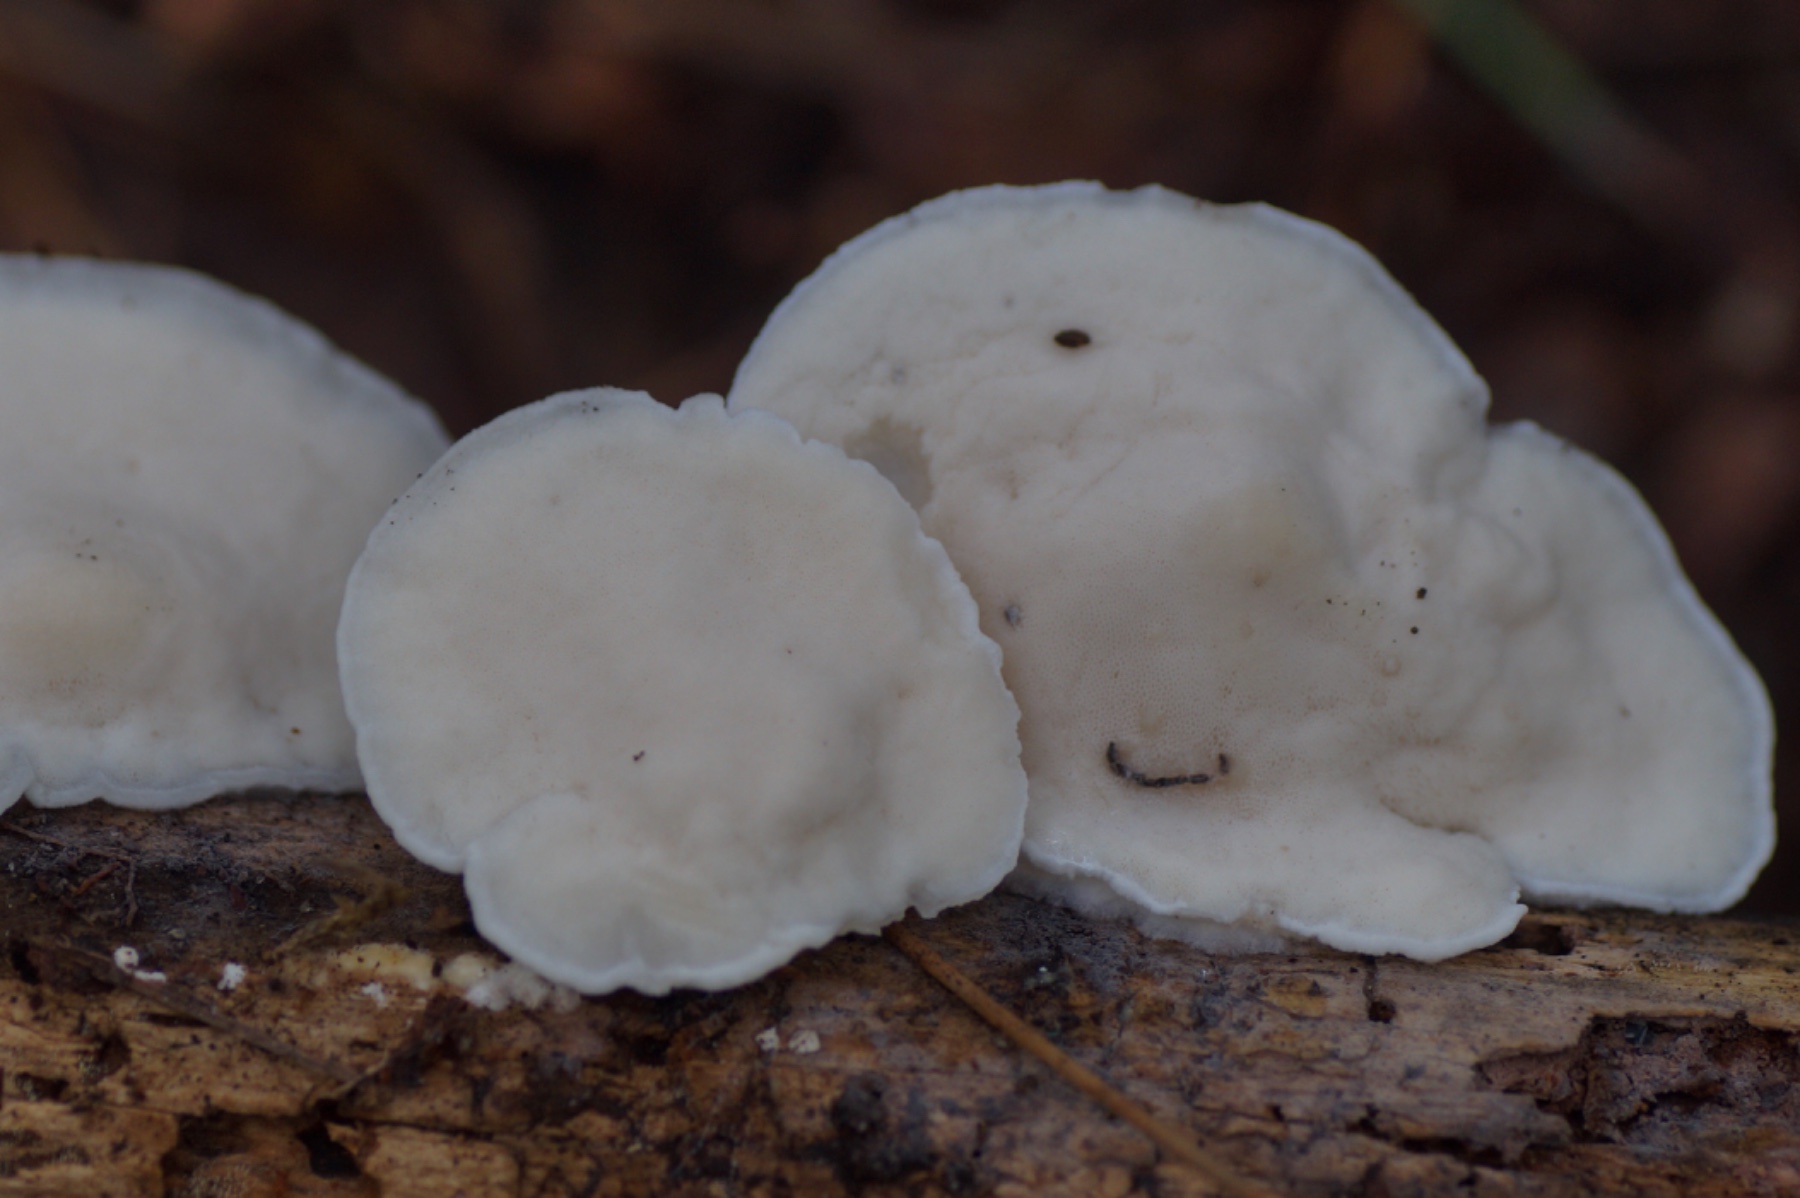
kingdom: Fungi
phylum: Basidiomycota
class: Agaricomycetes
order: Polyporales
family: Incrustoporiaceae
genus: Tyromyces
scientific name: Tyromyces lacteus
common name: mælkehvid kødporesvamp
